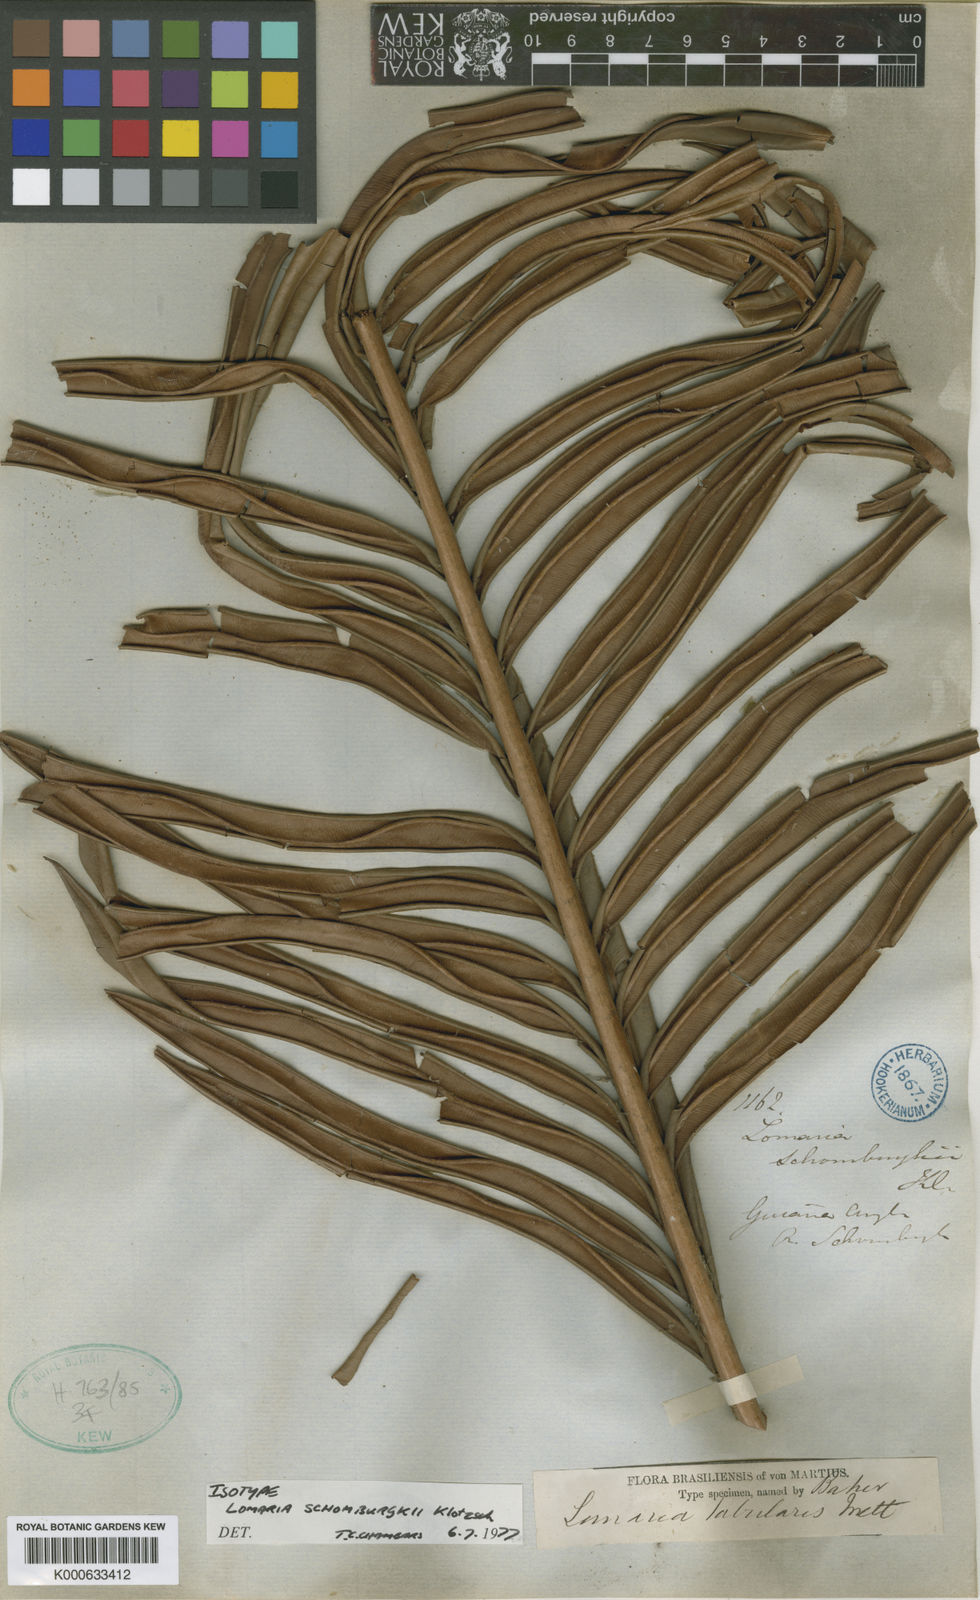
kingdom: Plantae
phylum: Tracheophyta
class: Polypodiopsida
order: Polypodiales
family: Blechnaceae
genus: Lomariocycas
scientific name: Lomariocycas schomburgkii
